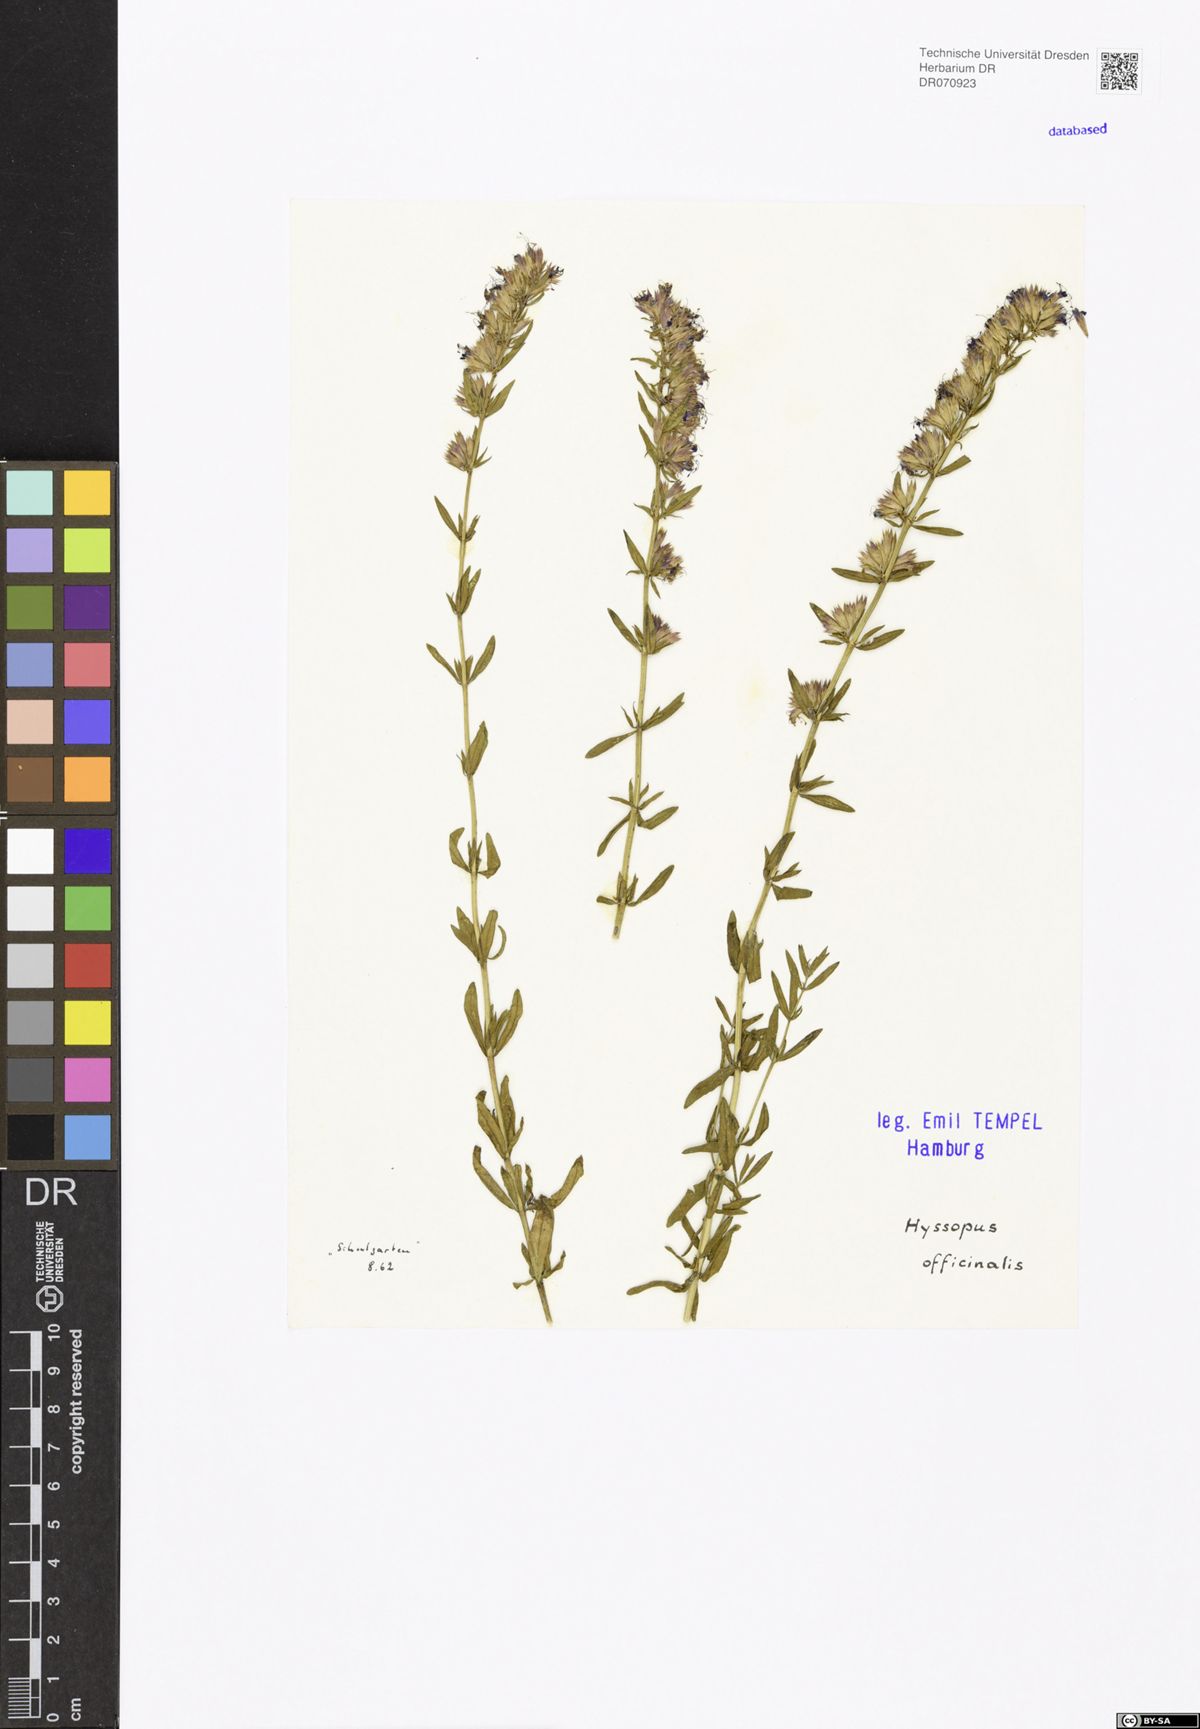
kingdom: Plantae
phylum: Tracheophyta
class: Magnoliopsida
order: Lamiales
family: Lamiaceae
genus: Hyssopus
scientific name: Hyssopus officinalis
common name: Hyssop
